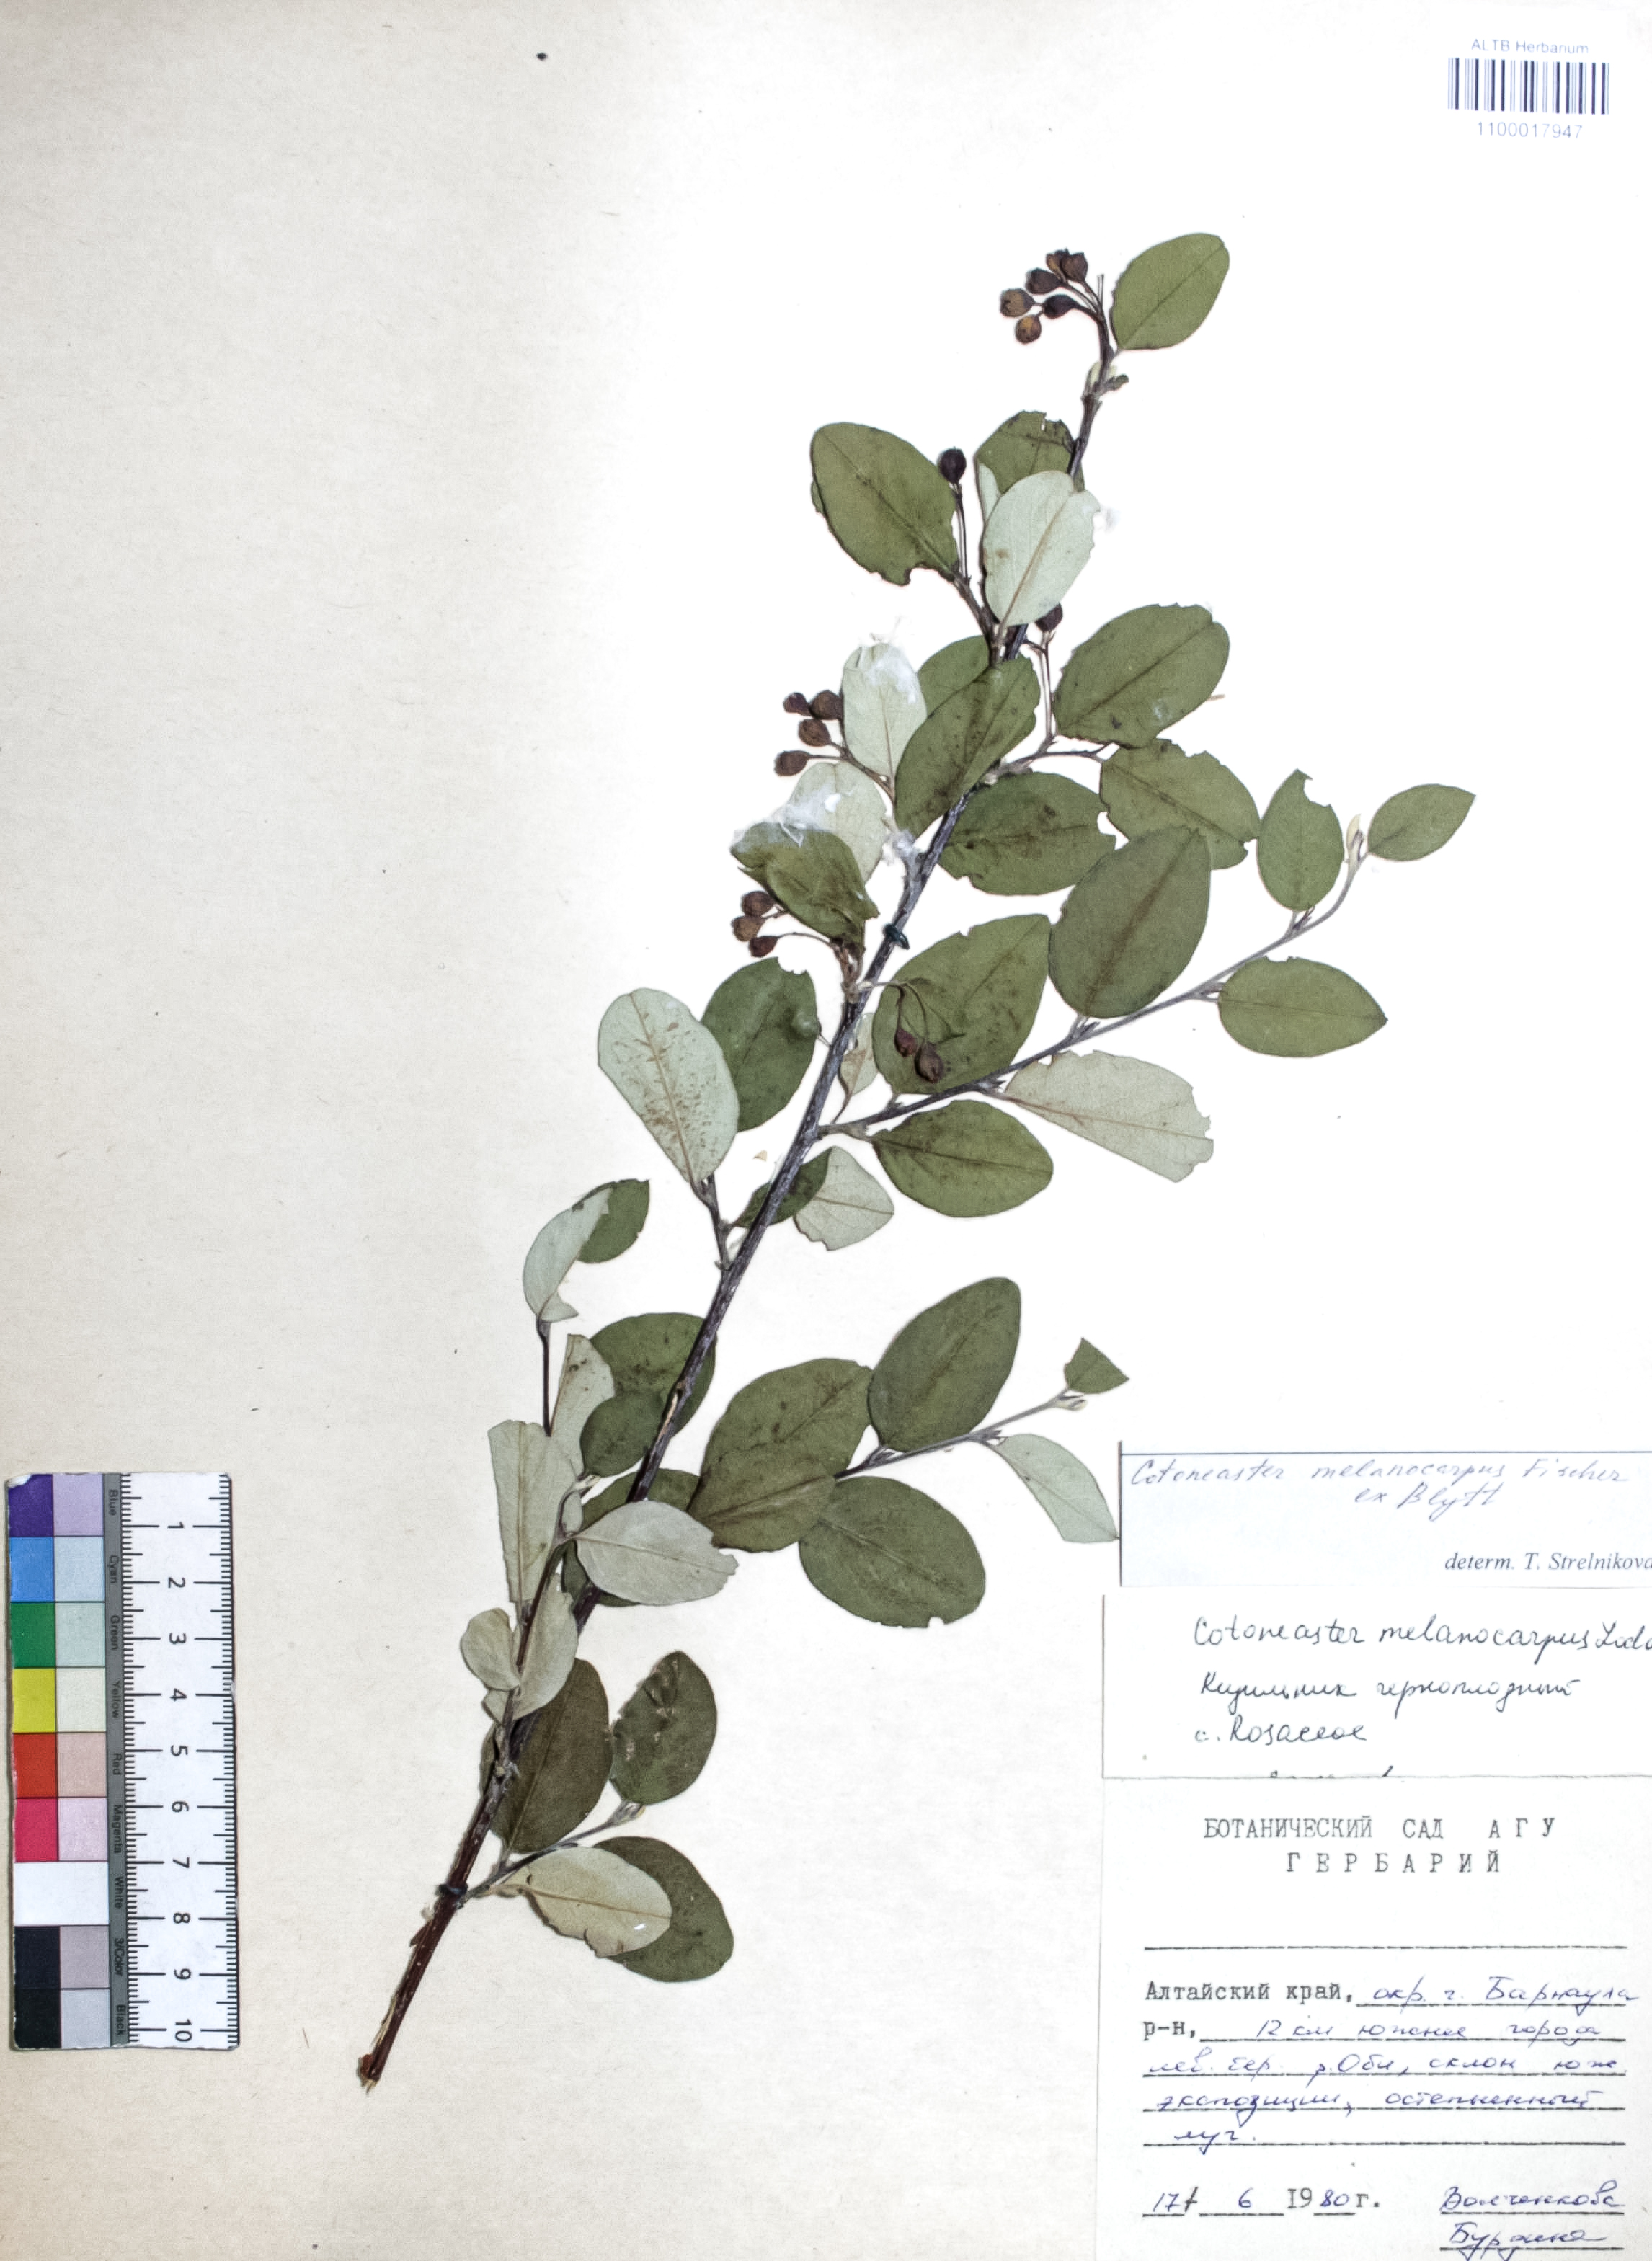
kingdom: Plantae
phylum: Tracheophyta
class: Magnoliopsida
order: Rosales
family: Rosaceae
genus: Cotoneaster
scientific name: Cotoneaster niger
